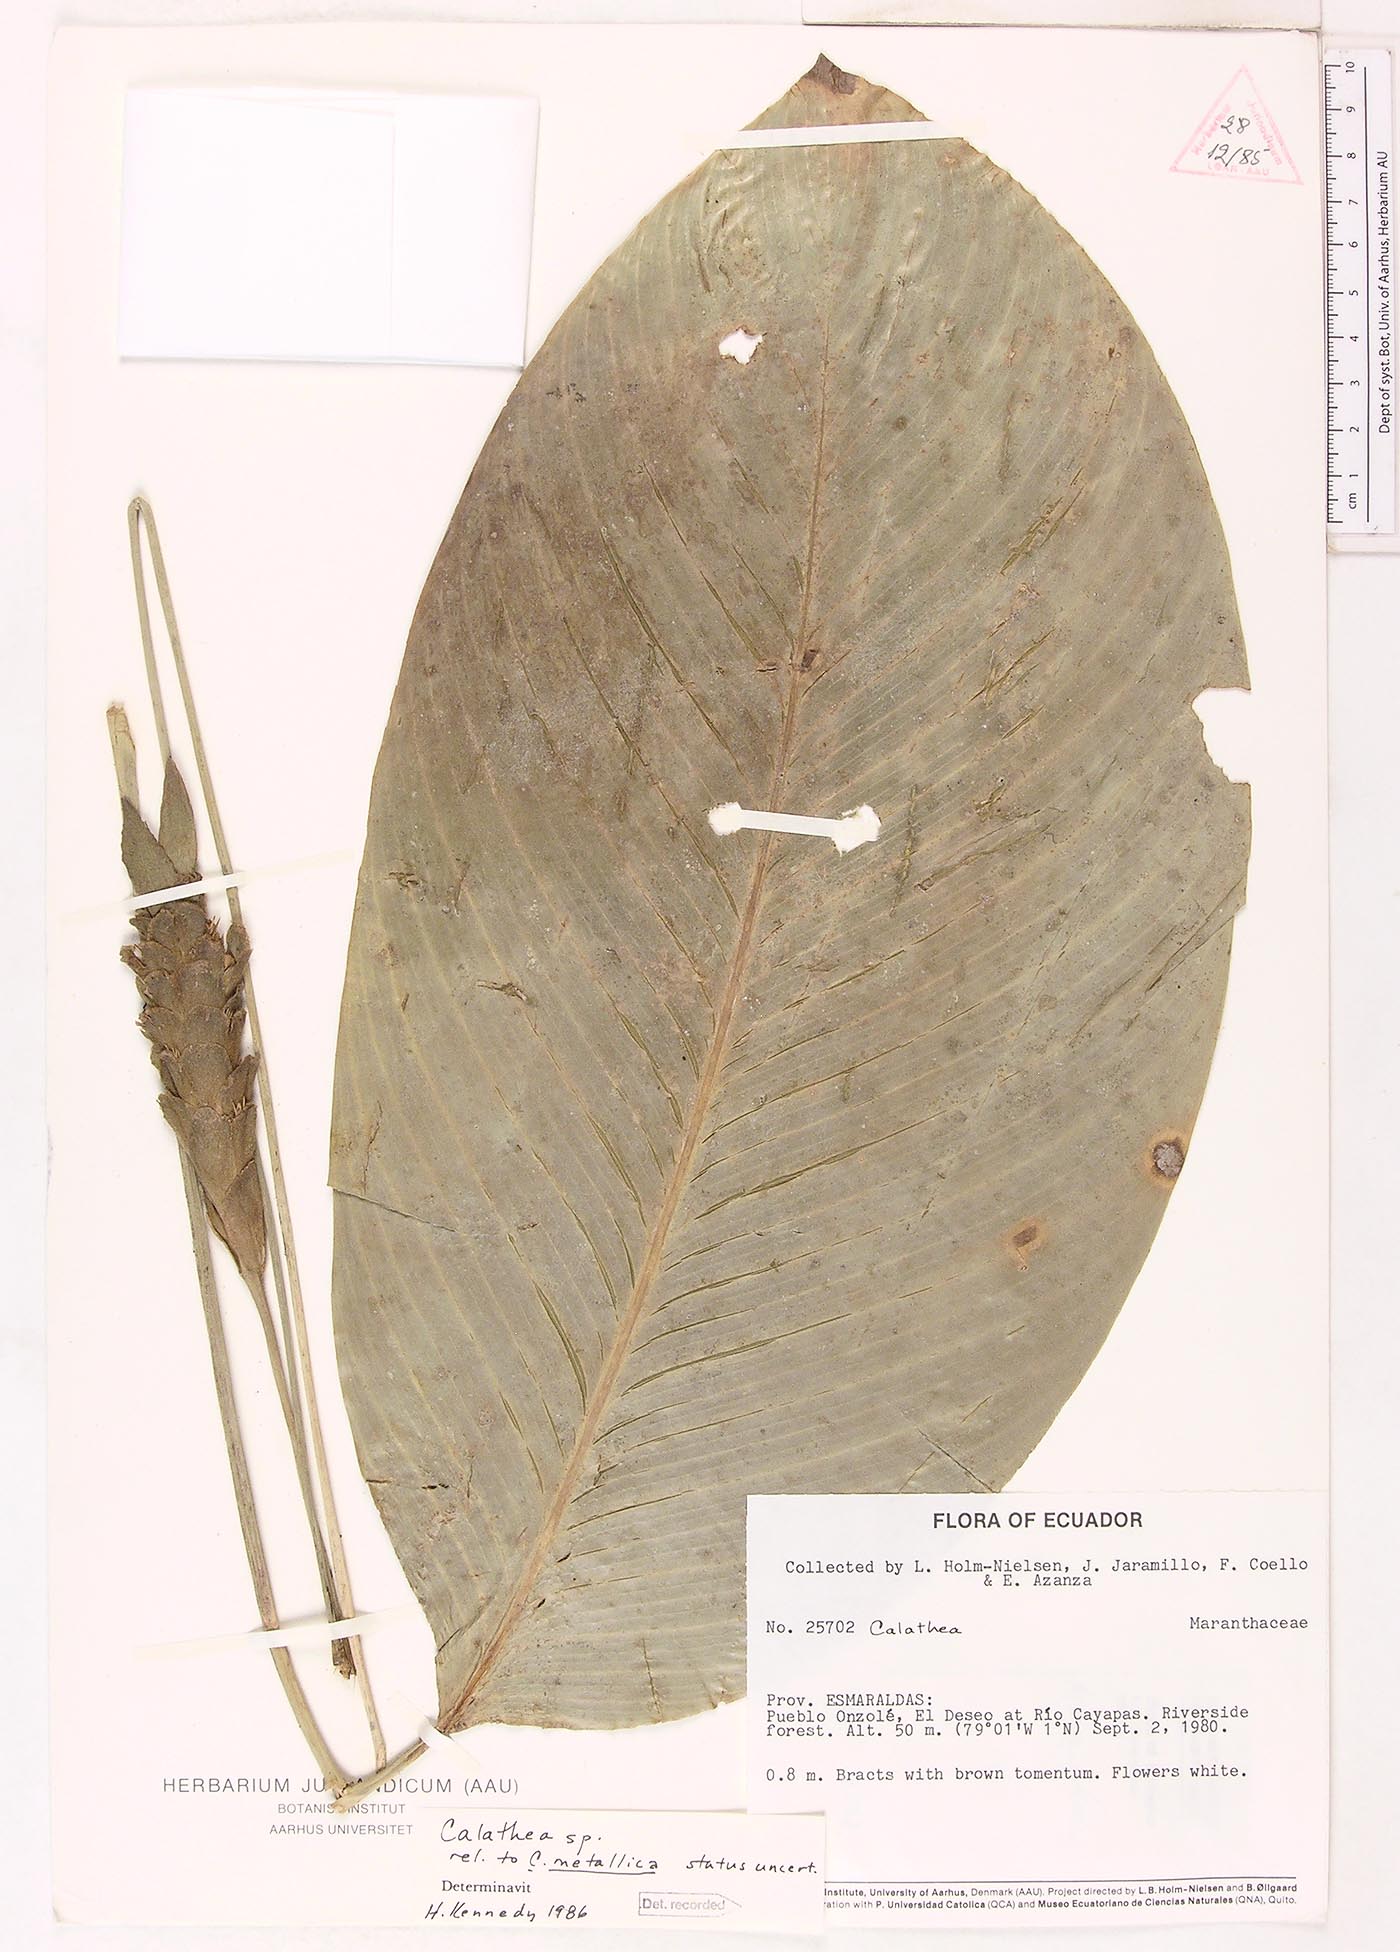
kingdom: Plantae
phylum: Tracheophyta
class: Magnoliopsida
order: Laurales
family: Lauraceae
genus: Goeppertia
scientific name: Goeppertia
